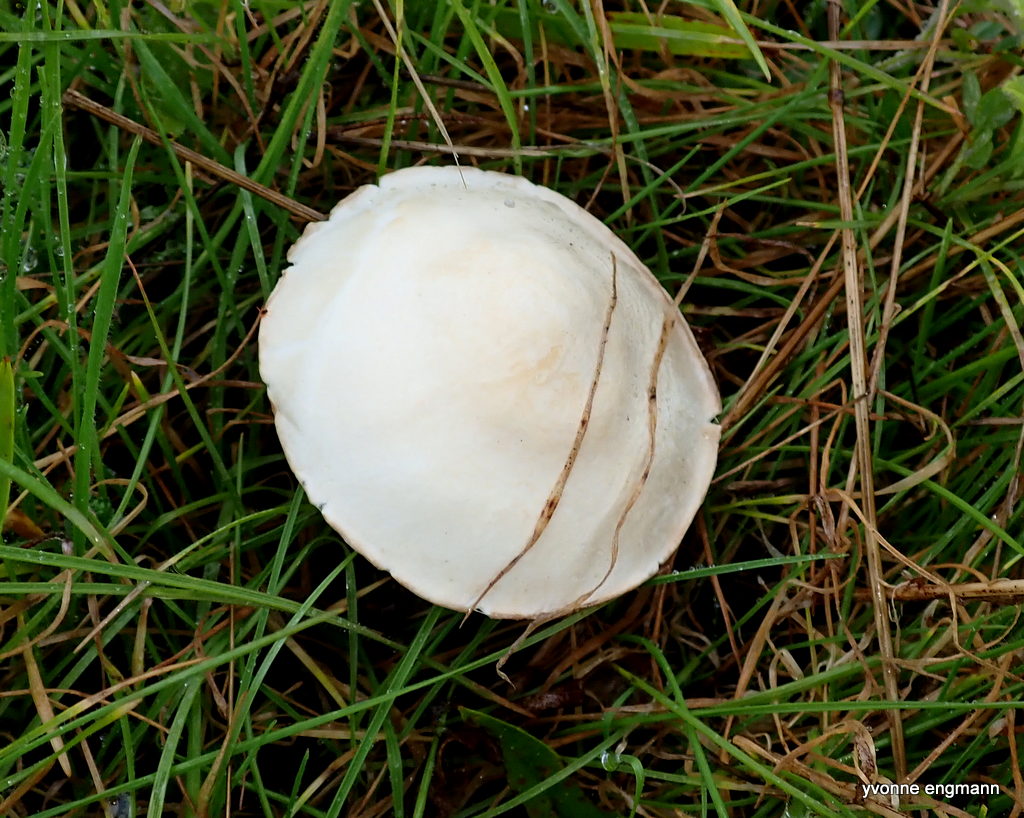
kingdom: Fungi
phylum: Basidiomycota
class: Agaricomycetes
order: Agaricales
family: Agaricaceae
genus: Leucoagaricus
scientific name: Leucoagaricus leucothites
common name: rosabladet silkehat
